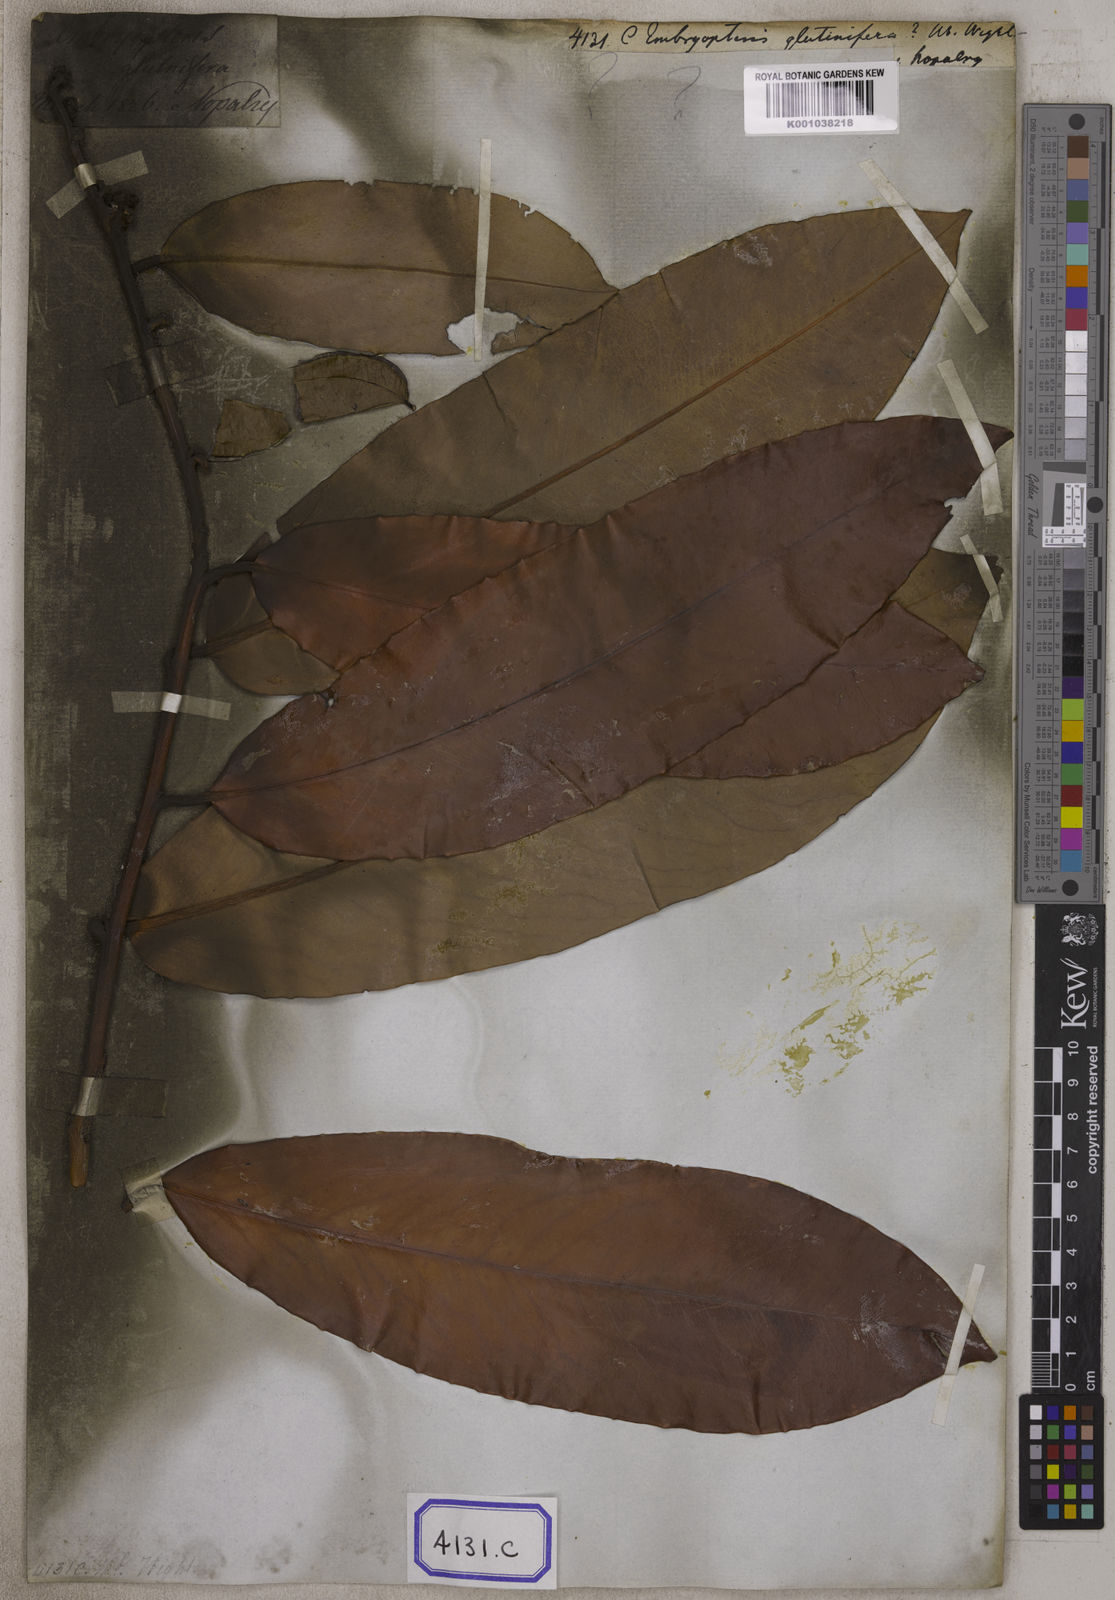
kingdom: Plantae
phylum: Tracheophyta
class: Magnoliopsida
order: Ericales
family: Ebenaceae
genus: Diospyros
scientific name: Diospyros blancoi
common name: Mabola-tree
